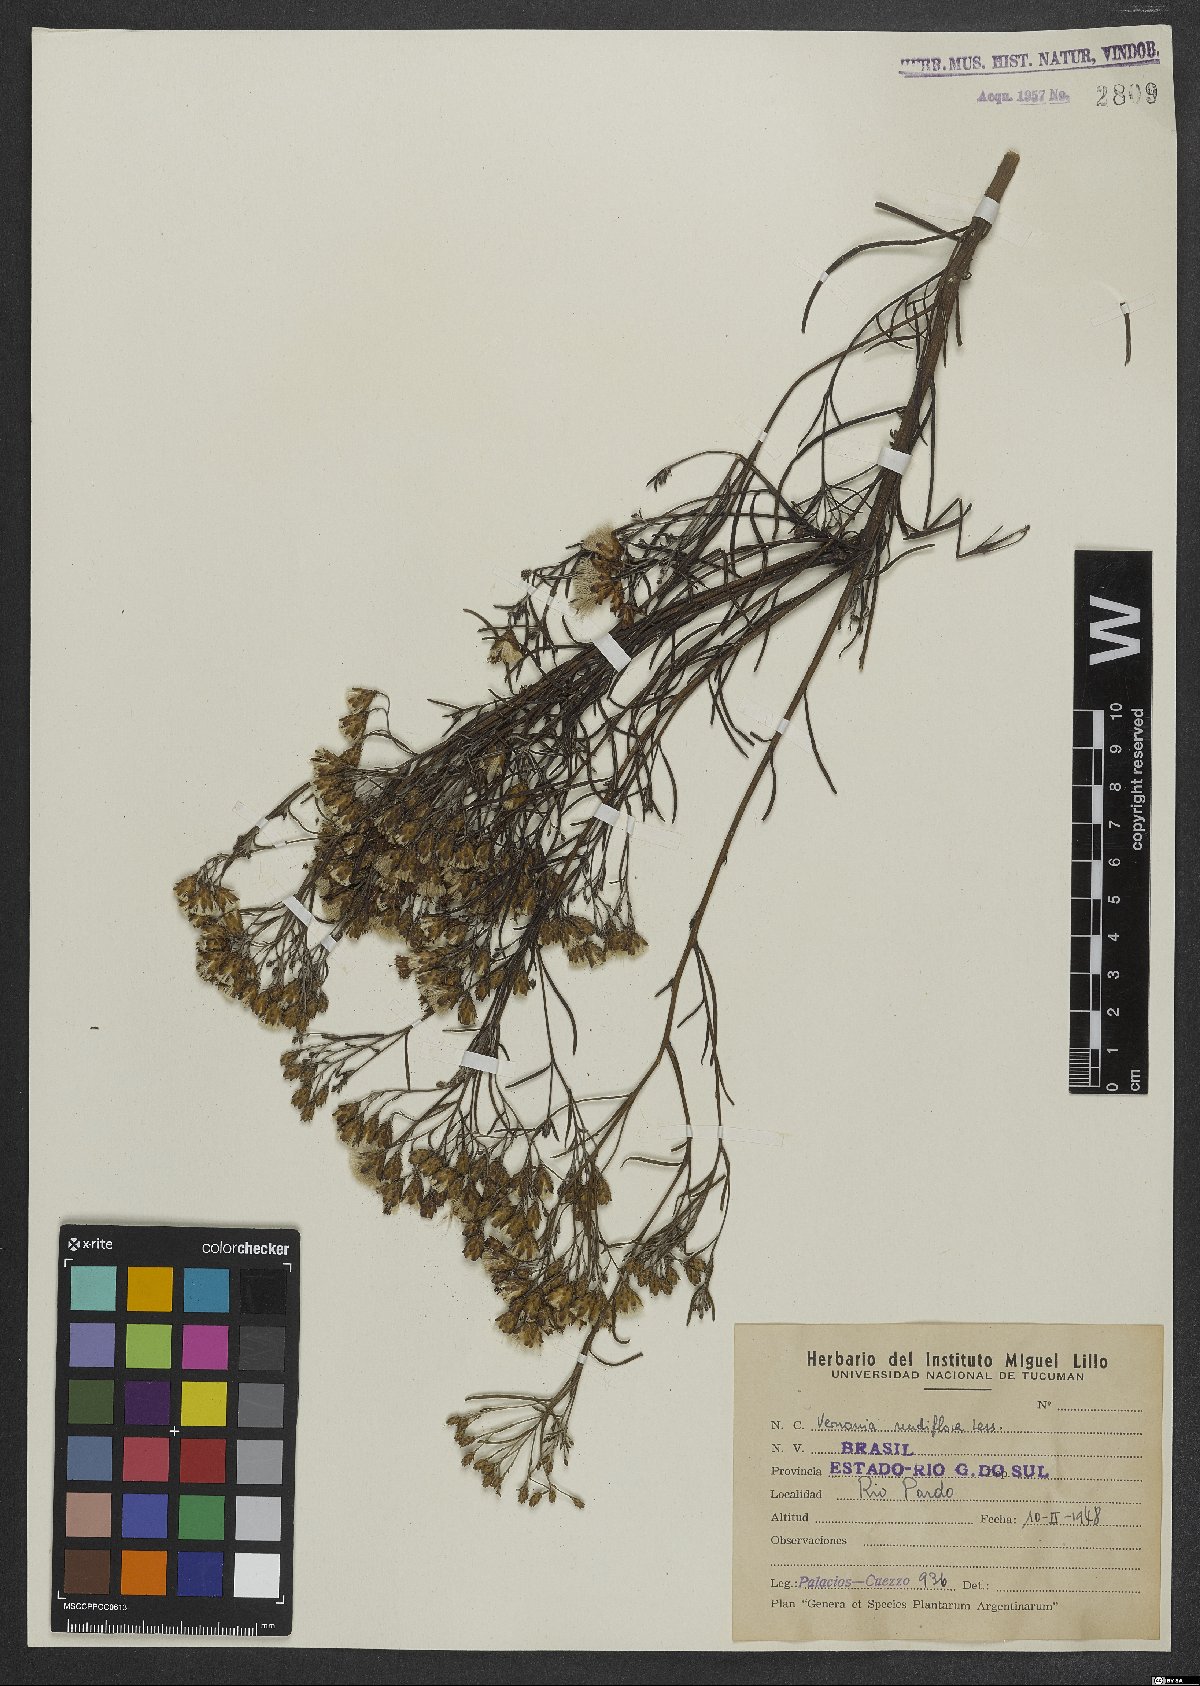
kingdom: Plantae
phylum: Tracheophyta
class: Magnoliopsida
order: Asterales
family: Asteraceae
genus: Vernonanthura
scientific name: Vernonanthura nudiflora
